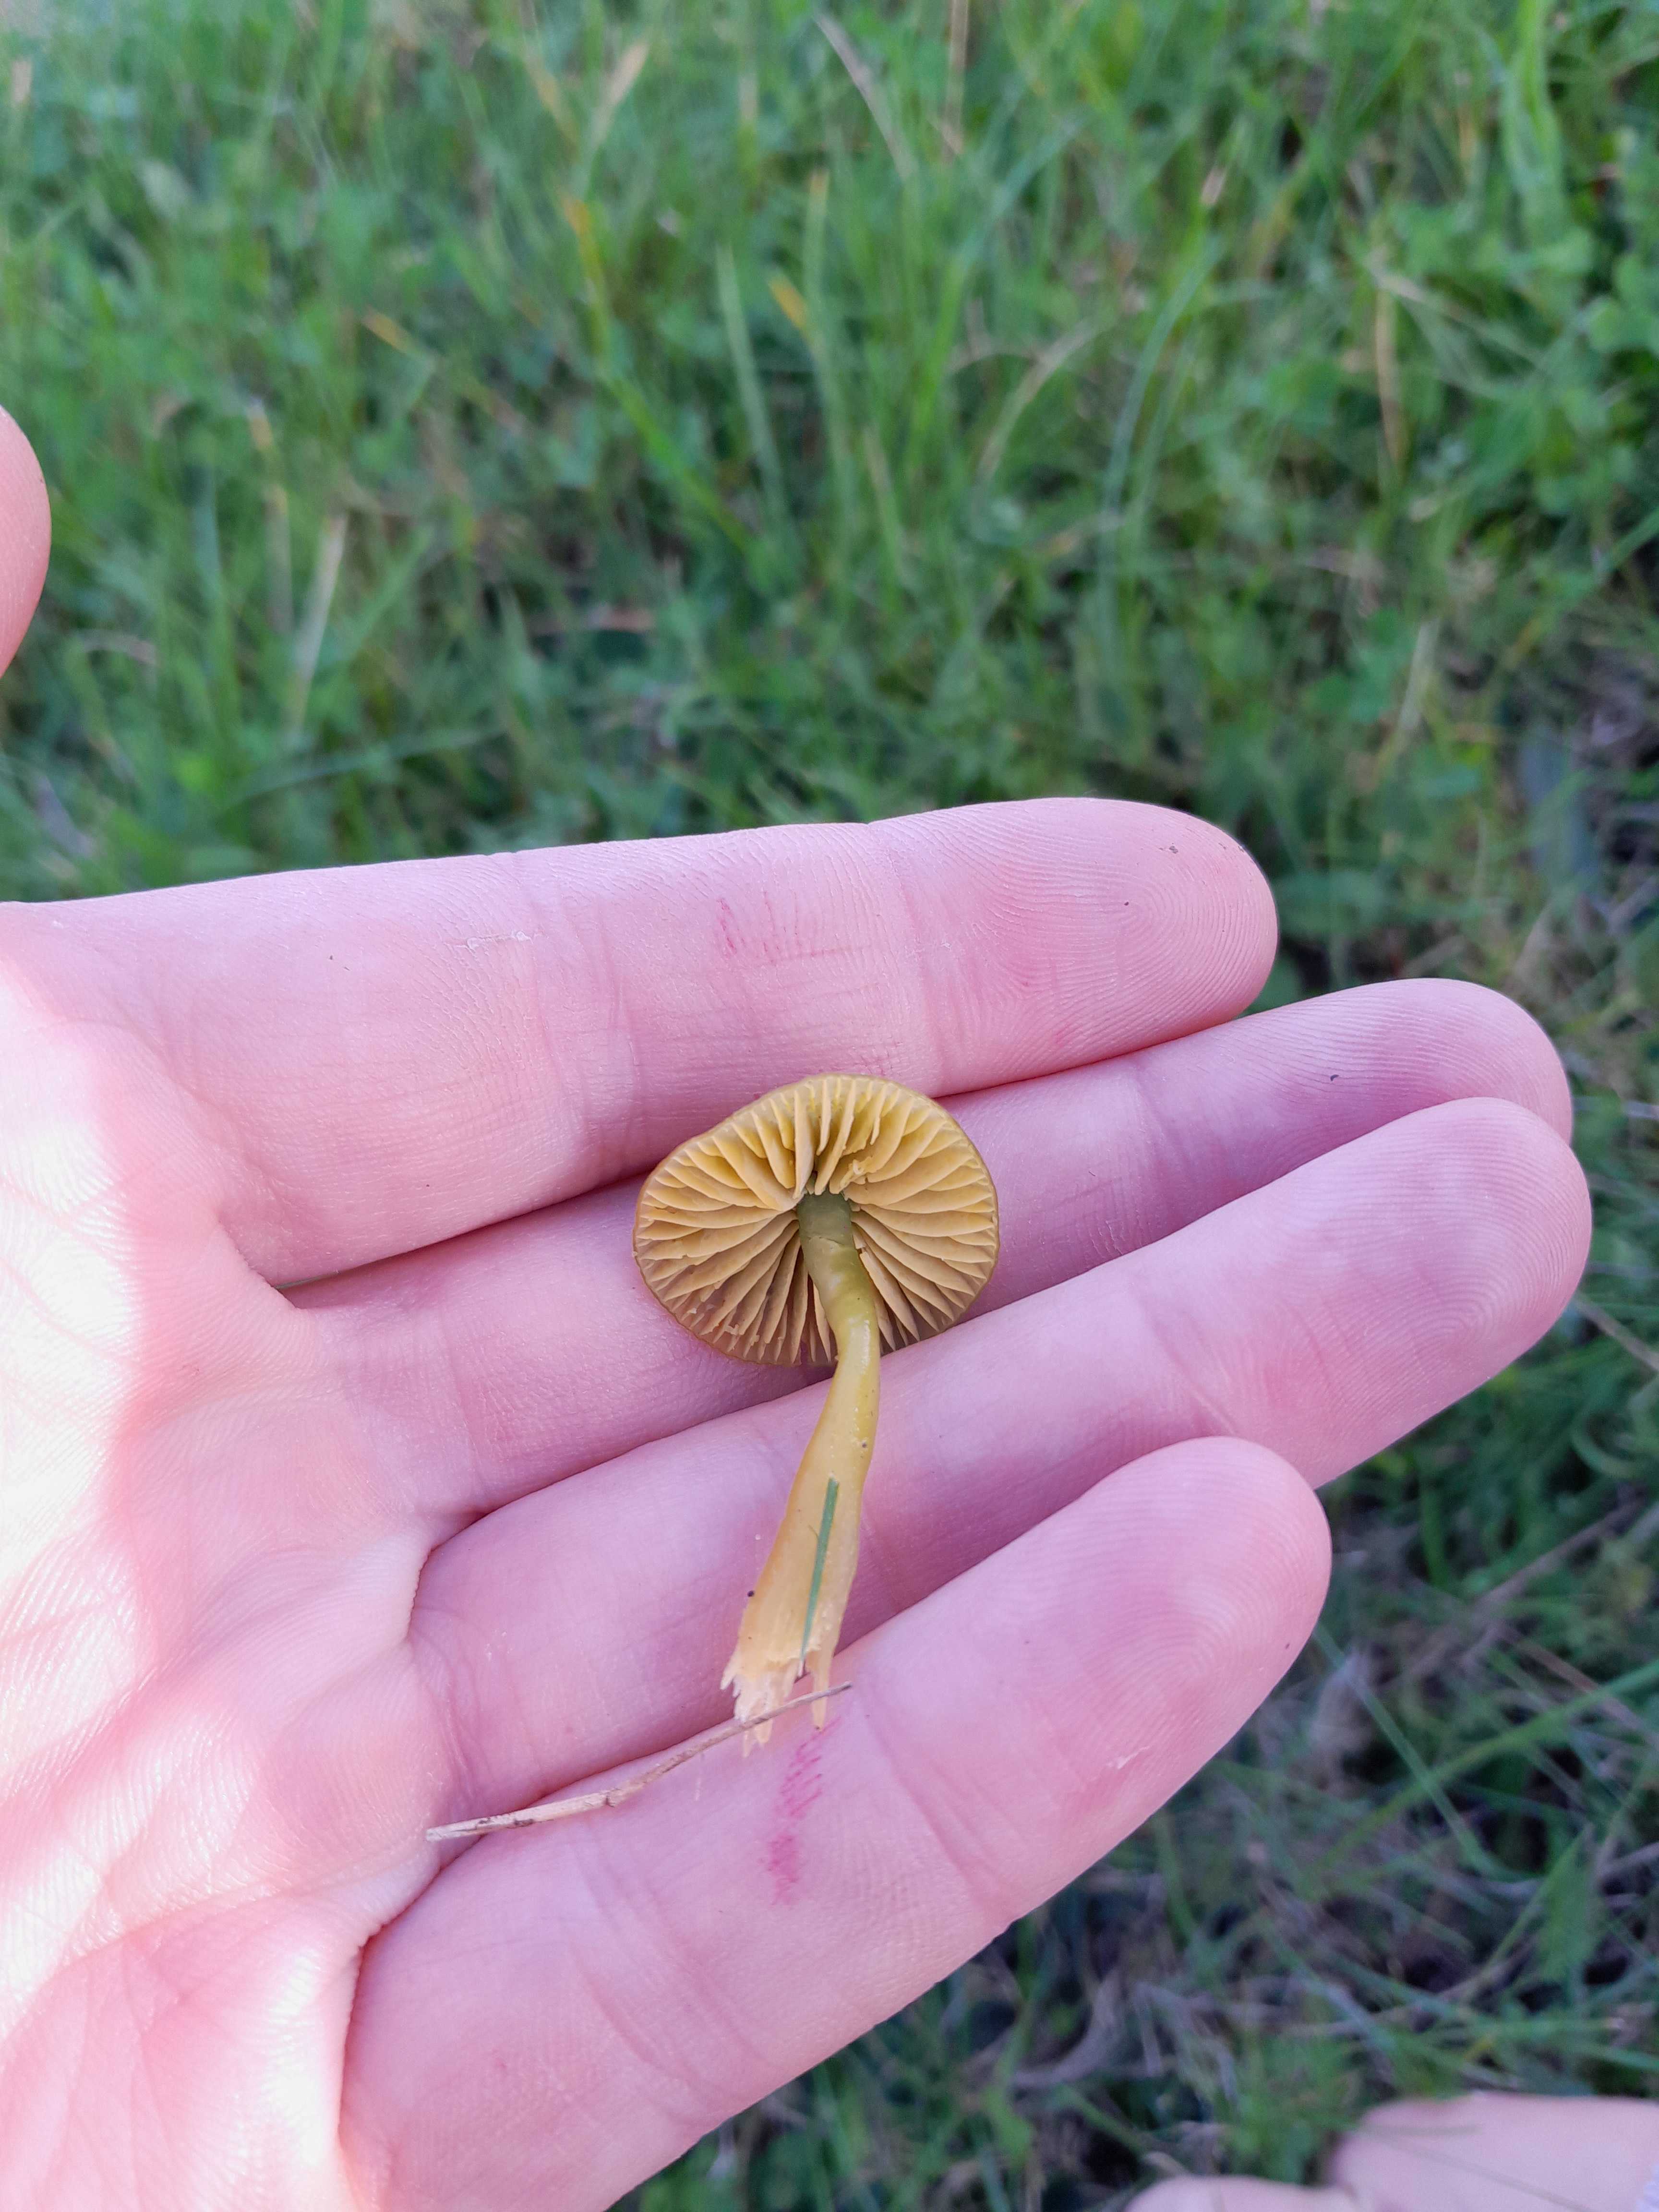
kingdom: Fungi
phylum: Basidiomycota
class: Agaricomycetes
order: Agaricales
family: Hygrophoraceae
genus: Gliophorus
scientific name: Gliophorus psittacinus
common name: papegøje-vokshat
